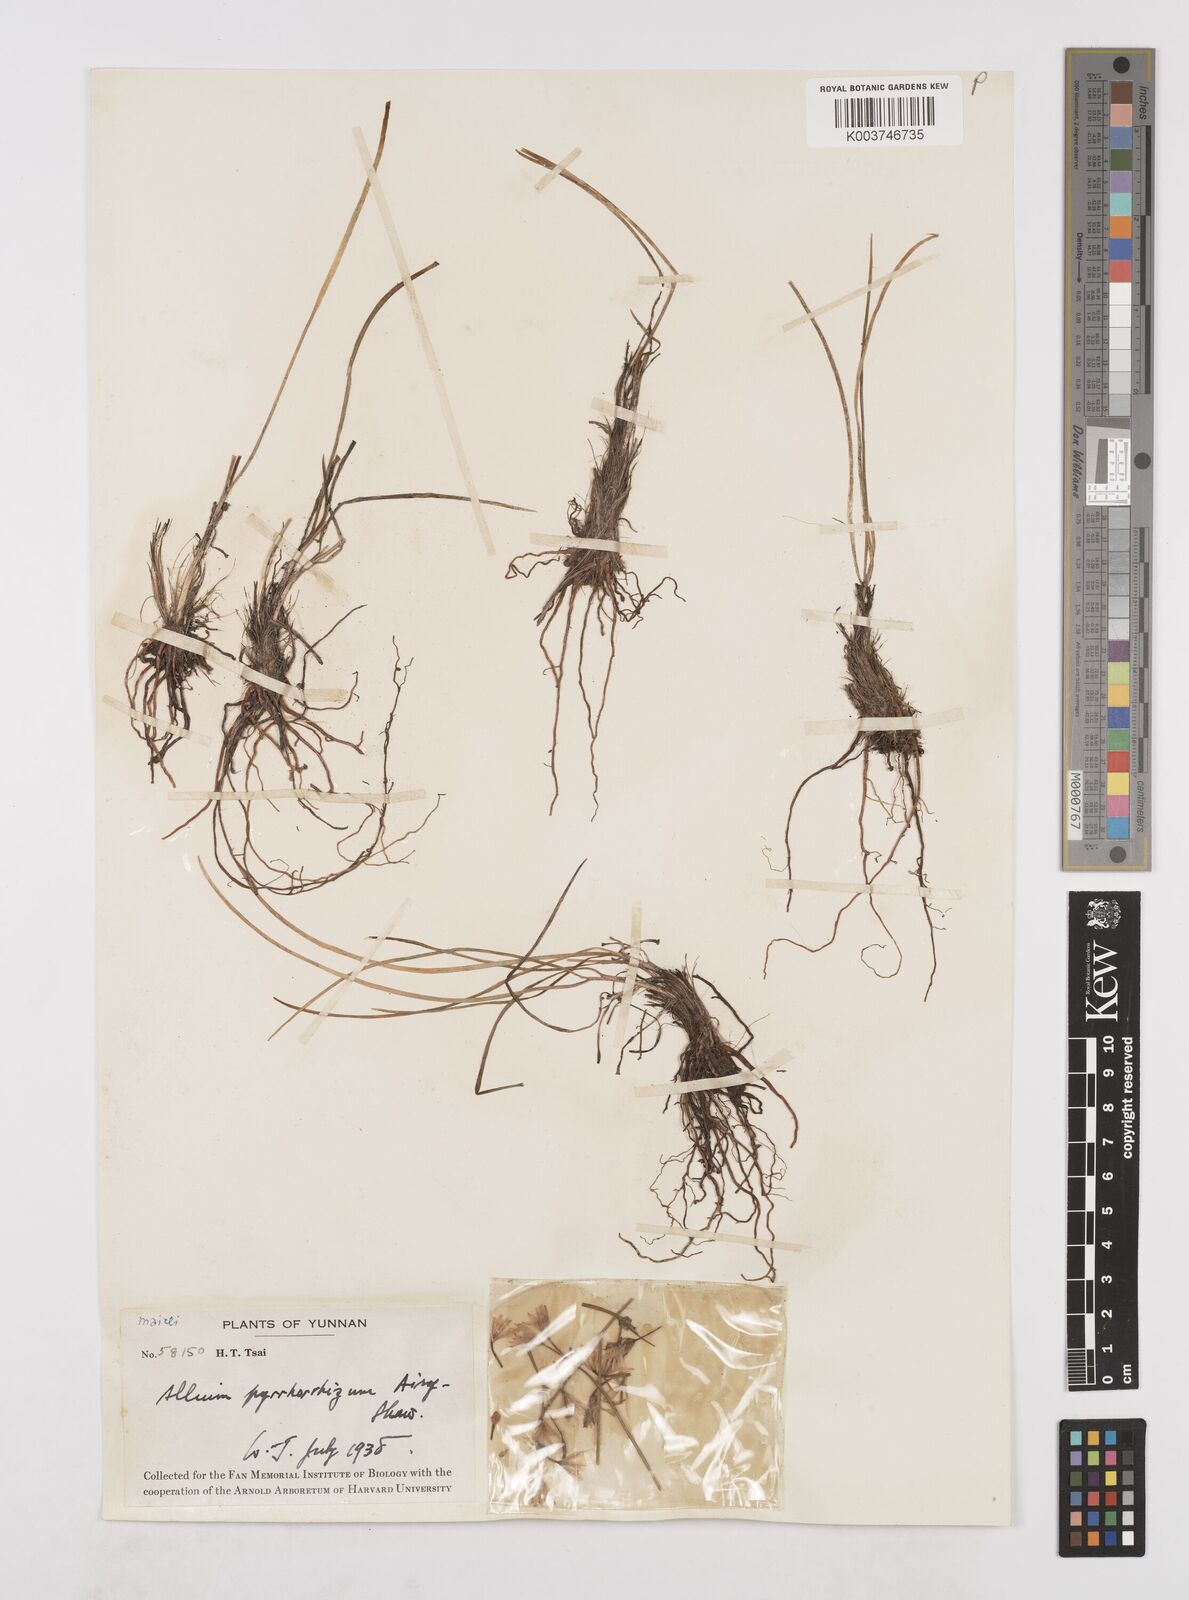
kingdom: Plantae
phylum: Tracheophyta
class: Liliopsida
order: Asparagales
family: Amaryllidaceae
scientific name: Amaryllidaceae
